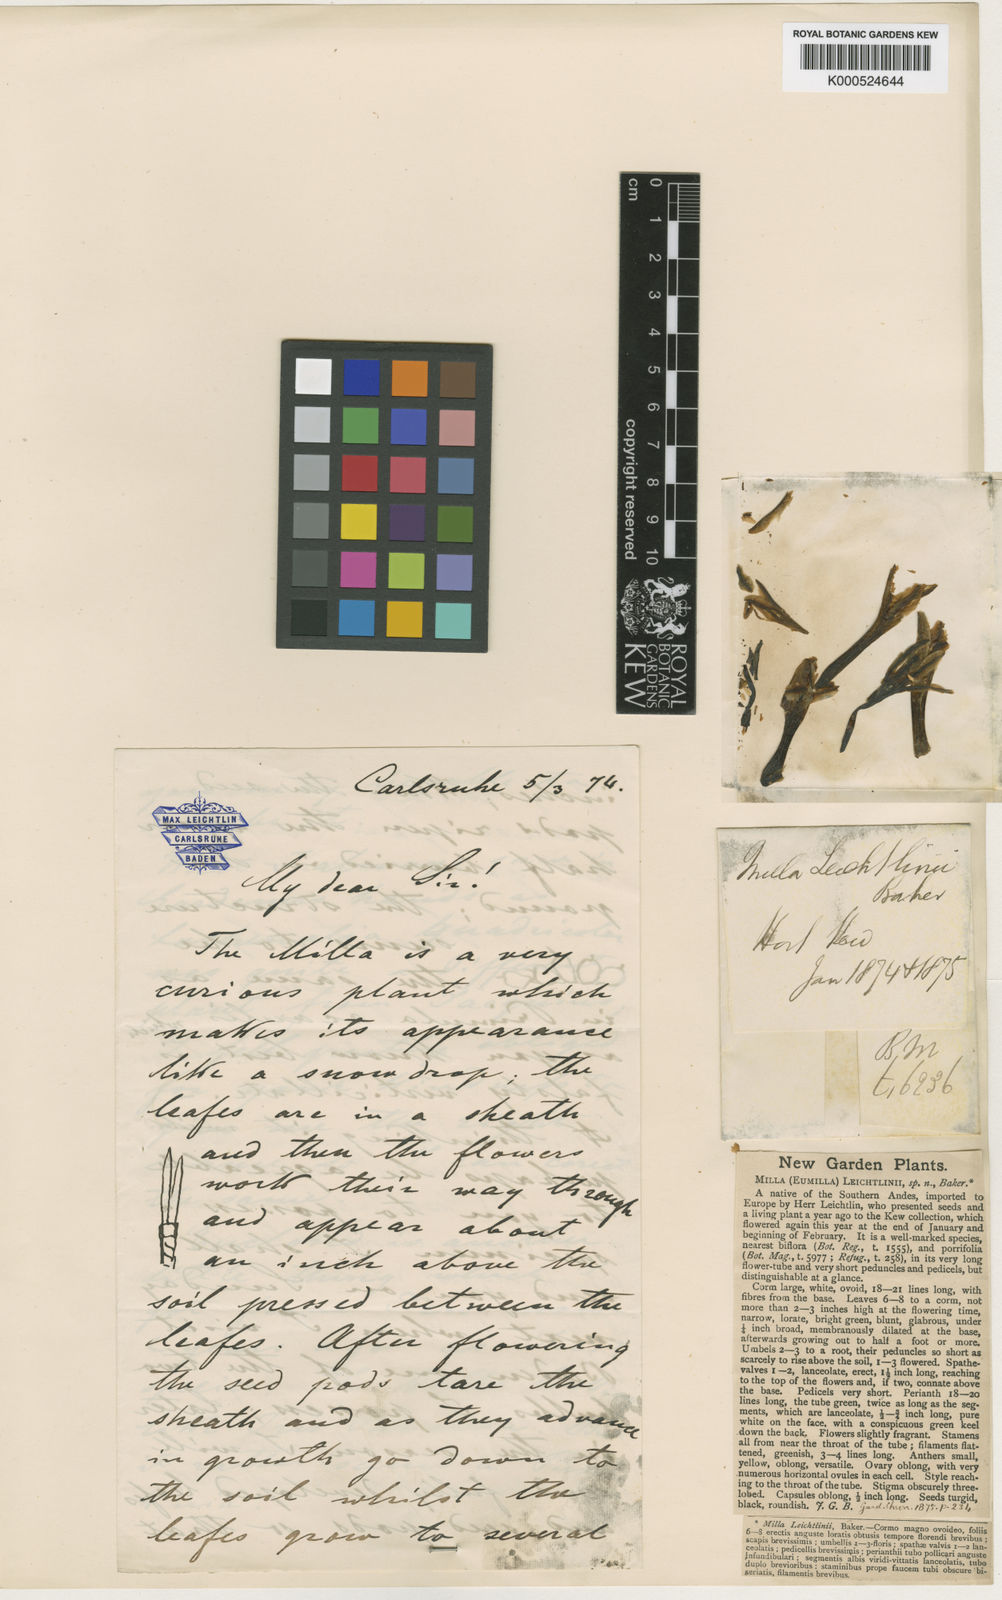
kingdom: Plantae
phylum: Tracheophyta
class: Liliopsida
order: Asparagales
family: Amaryllidaceae
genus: Tristagma
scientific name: Tristagma sessile
